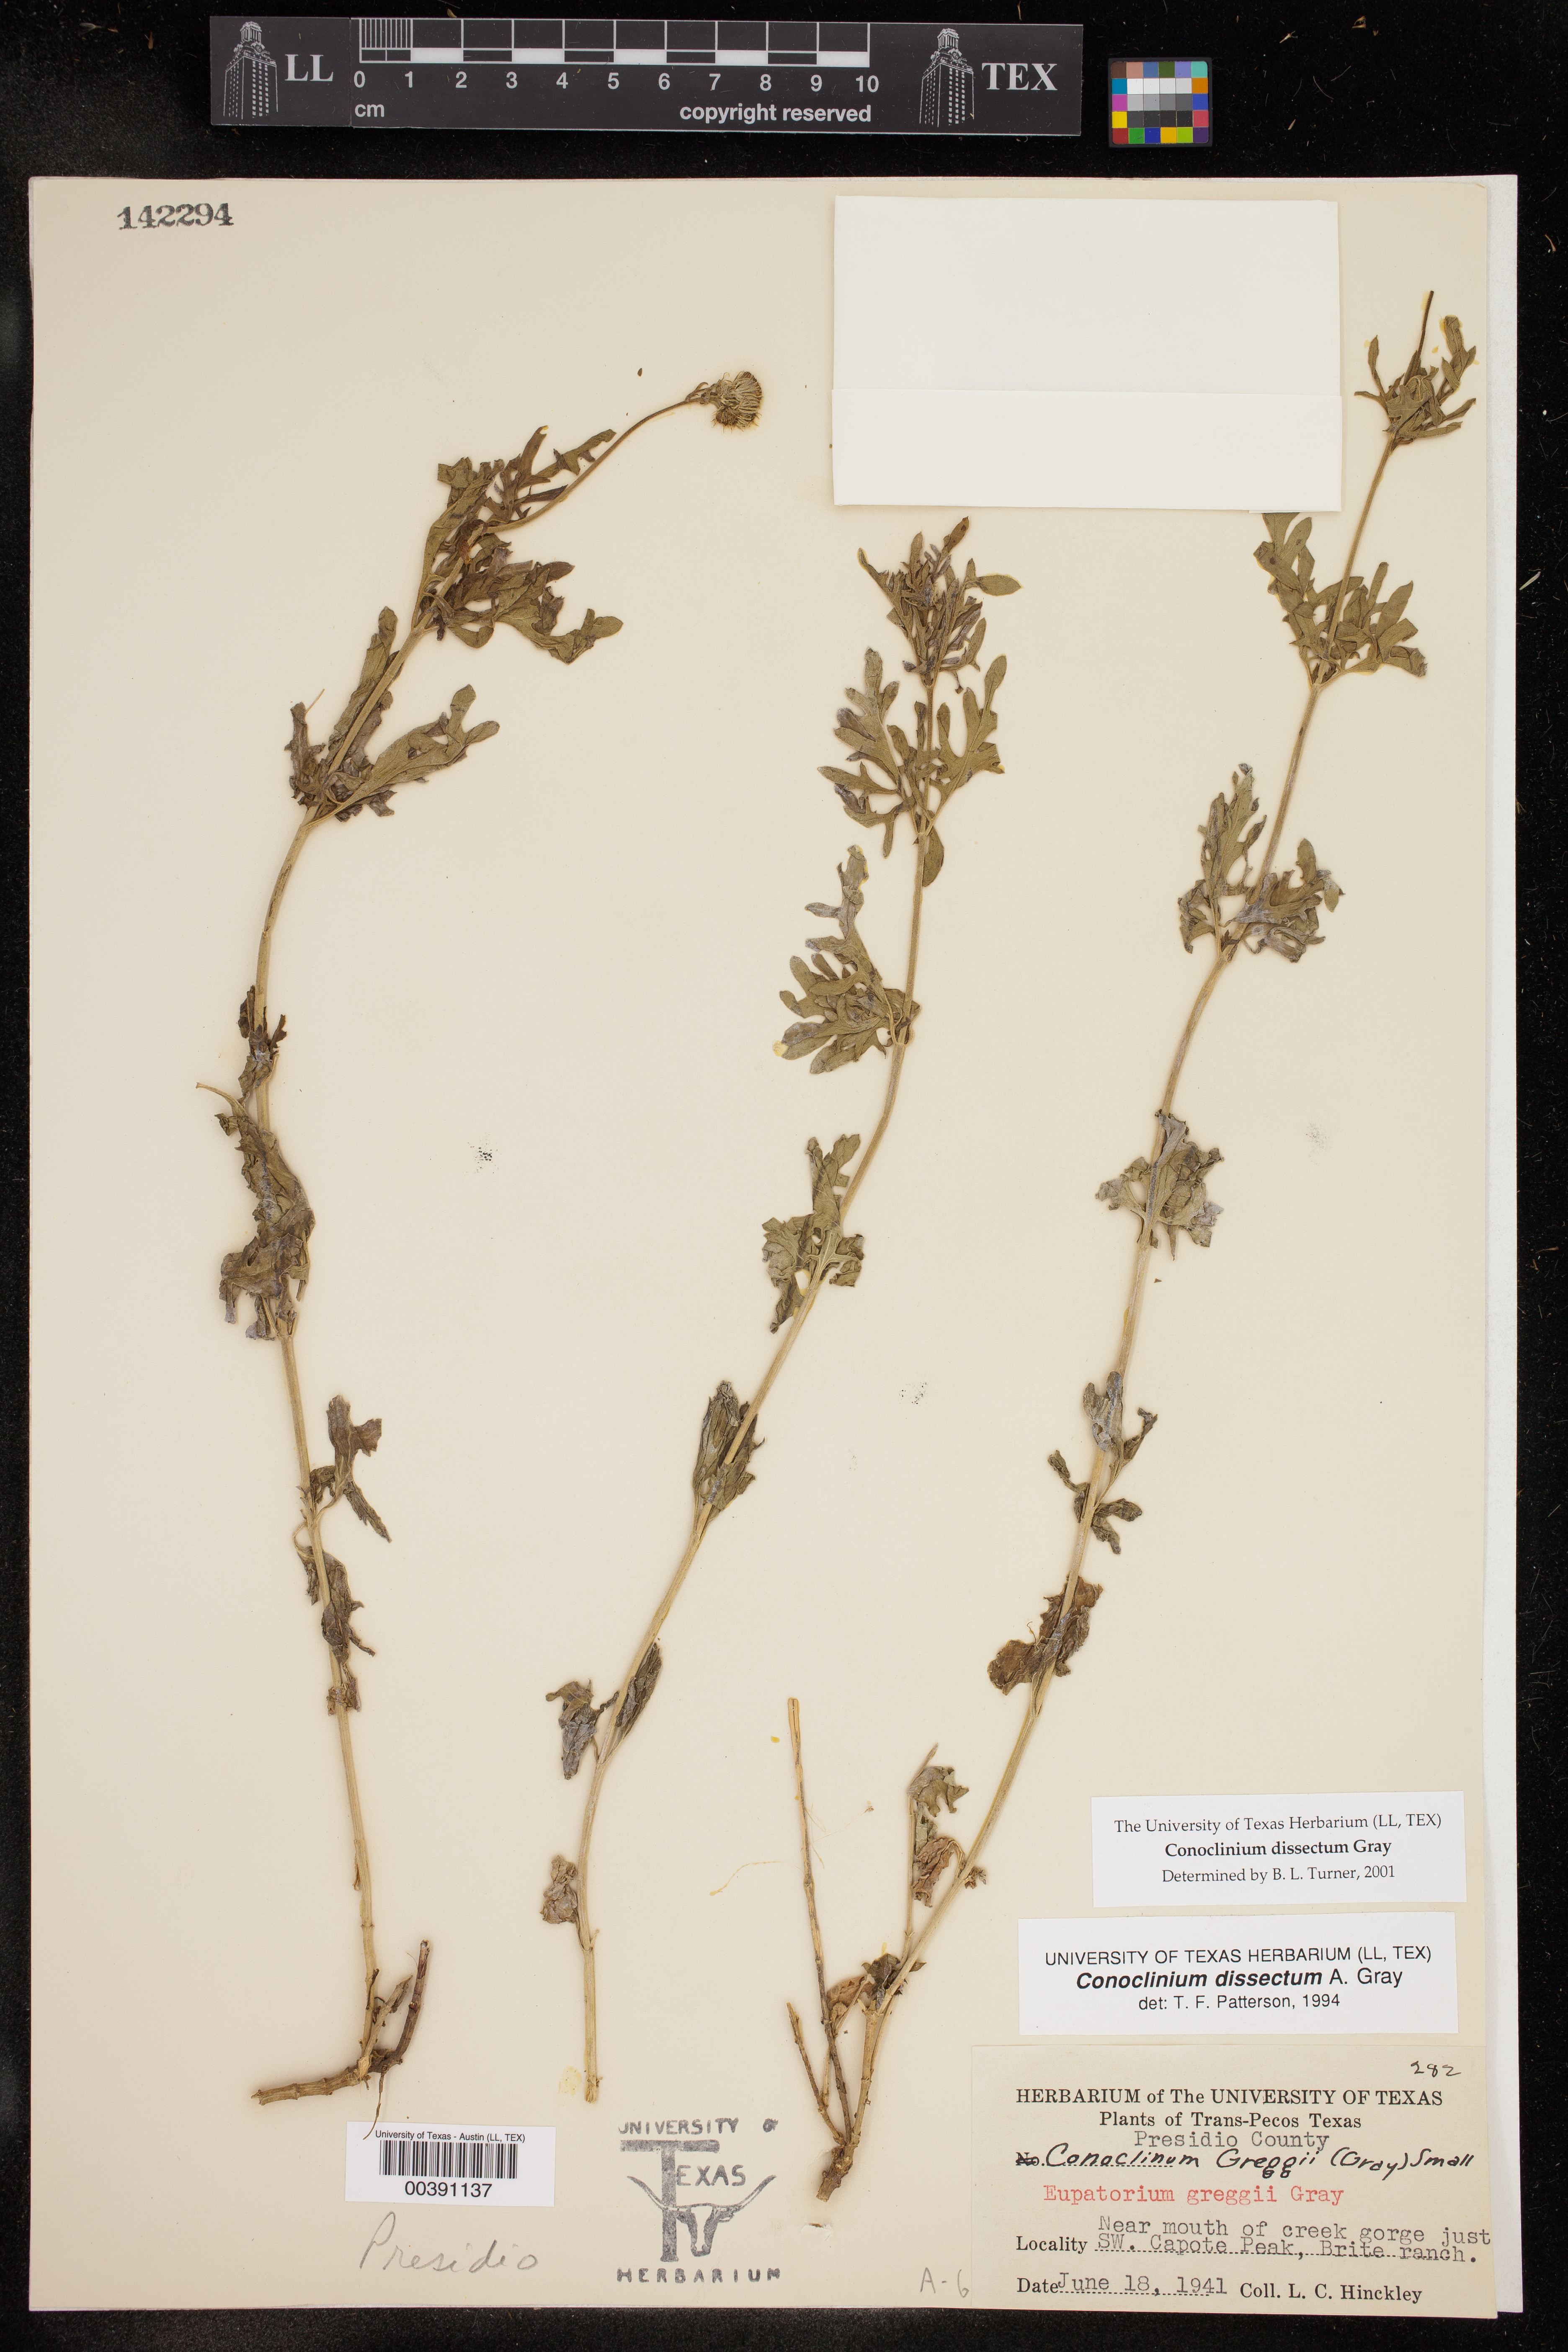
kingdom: Plantae
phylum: Tracheophyta
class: Magnoliopsida
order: Asterales
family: Asteraceae
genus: Conoclinium
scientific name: Conoclinium dissectum
